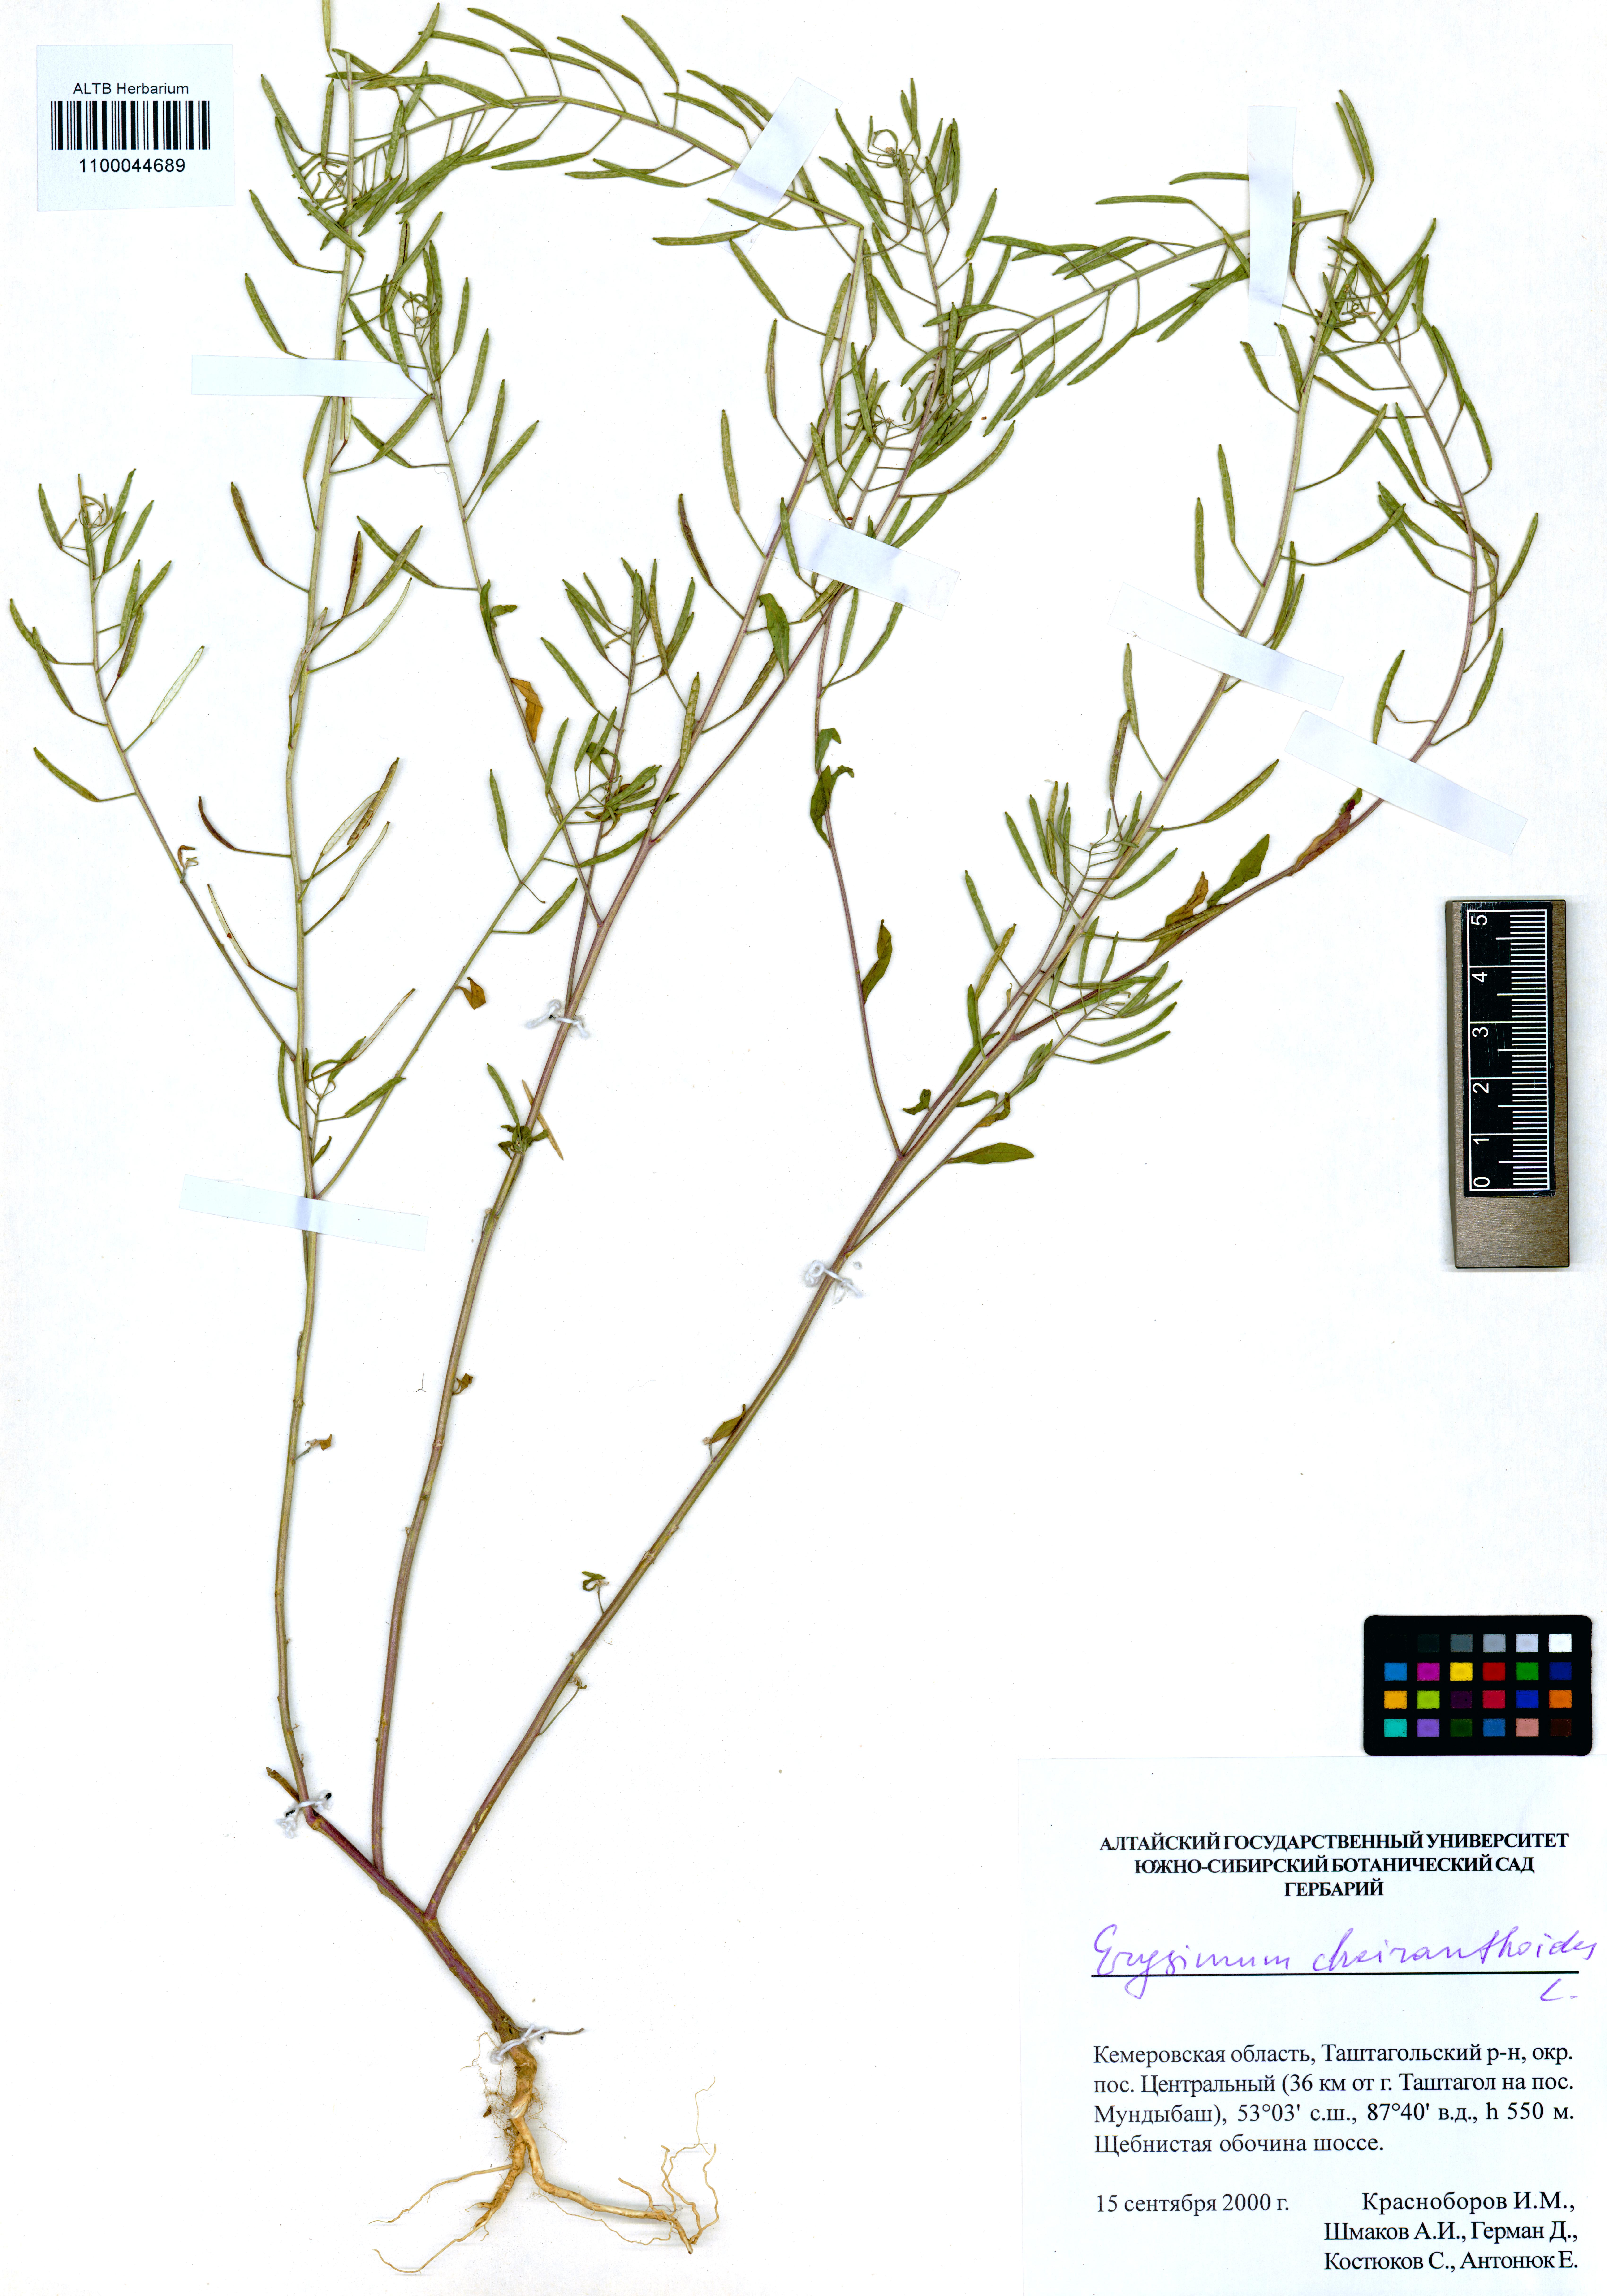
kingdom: Plantae
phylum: Tracheophyta
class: Magnoliopsida
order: Brassicales
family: Brassicaceae
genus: Erysimum
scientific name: Erysimum cheiranthoides
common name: Treacle mustard
